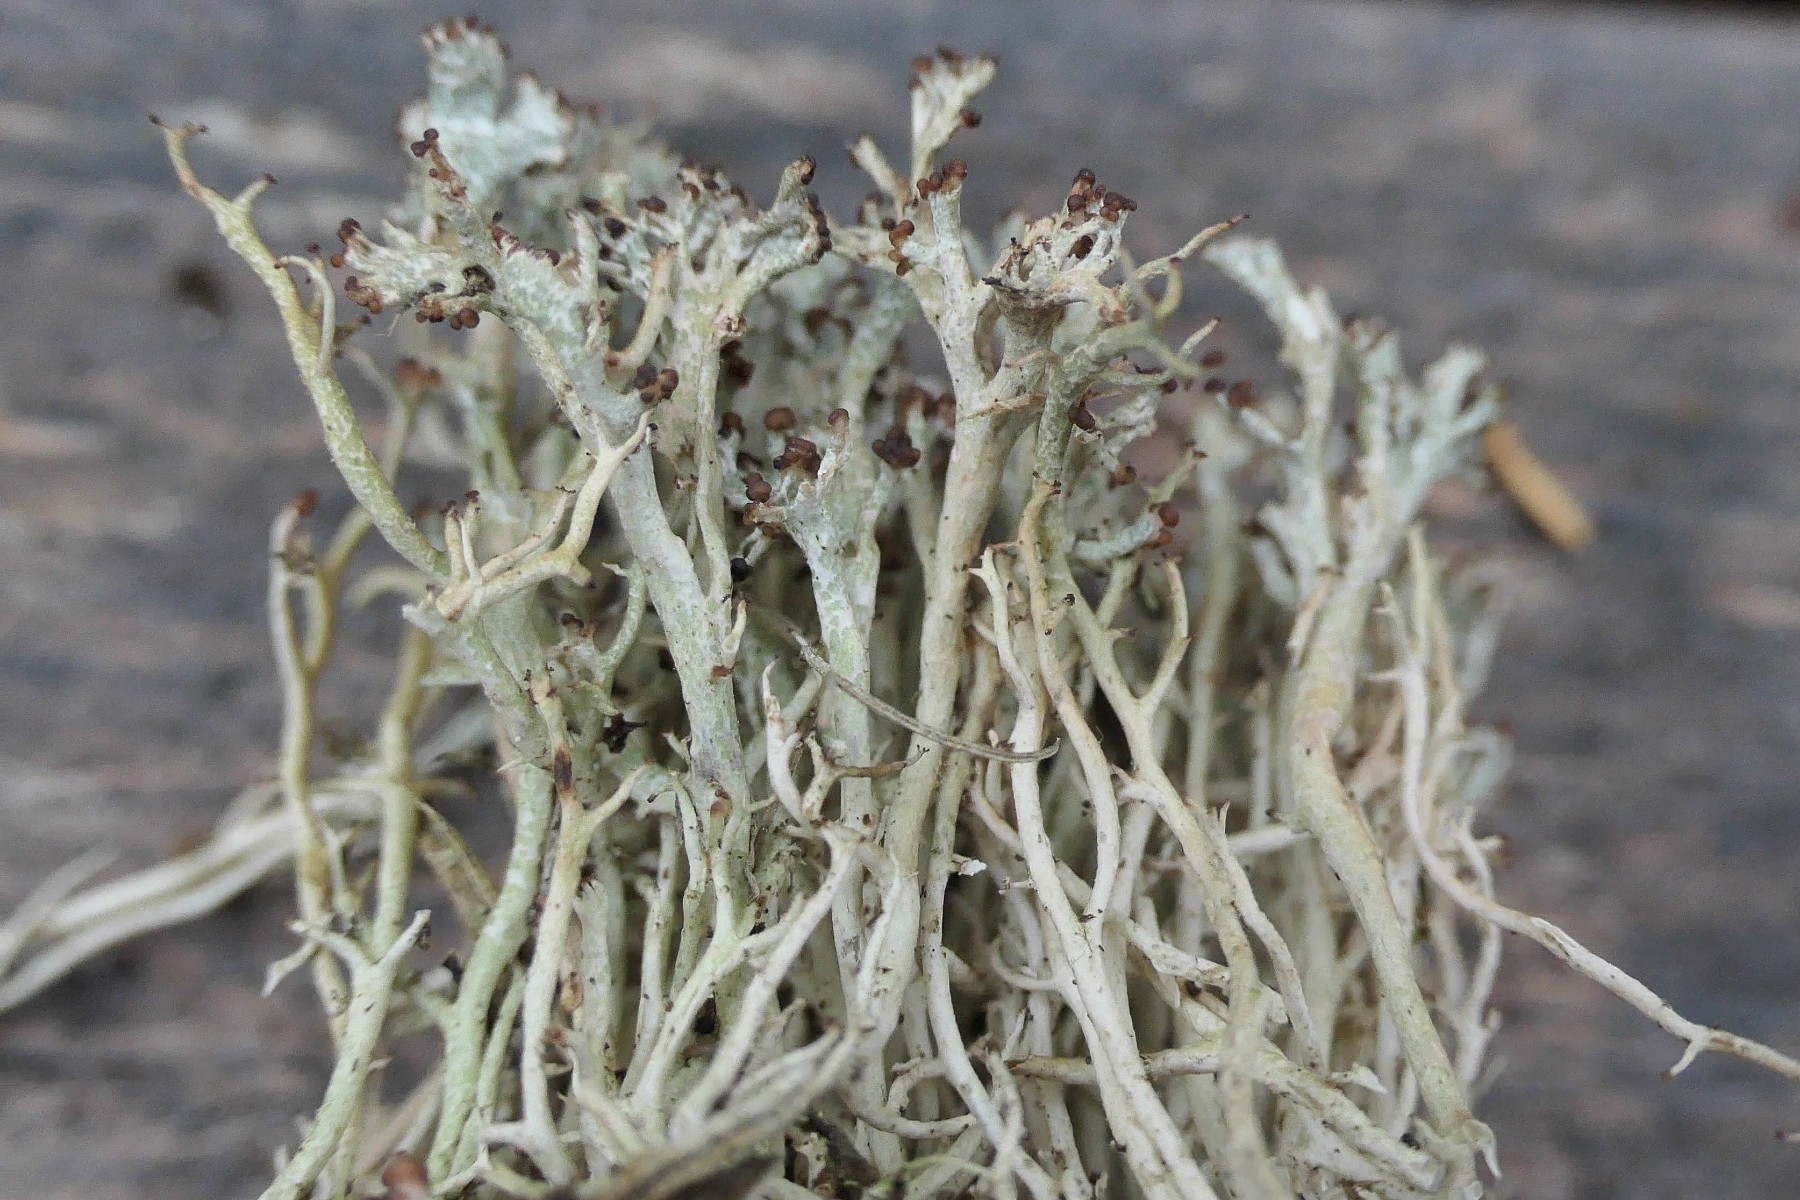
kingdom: Fungi
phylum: Ascomycota
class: Lecanoromycetes
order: Lecanorales
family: Cladoniaceae
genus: Cladonia
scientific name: Cladonia furcata
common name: kløftet bægerlav
